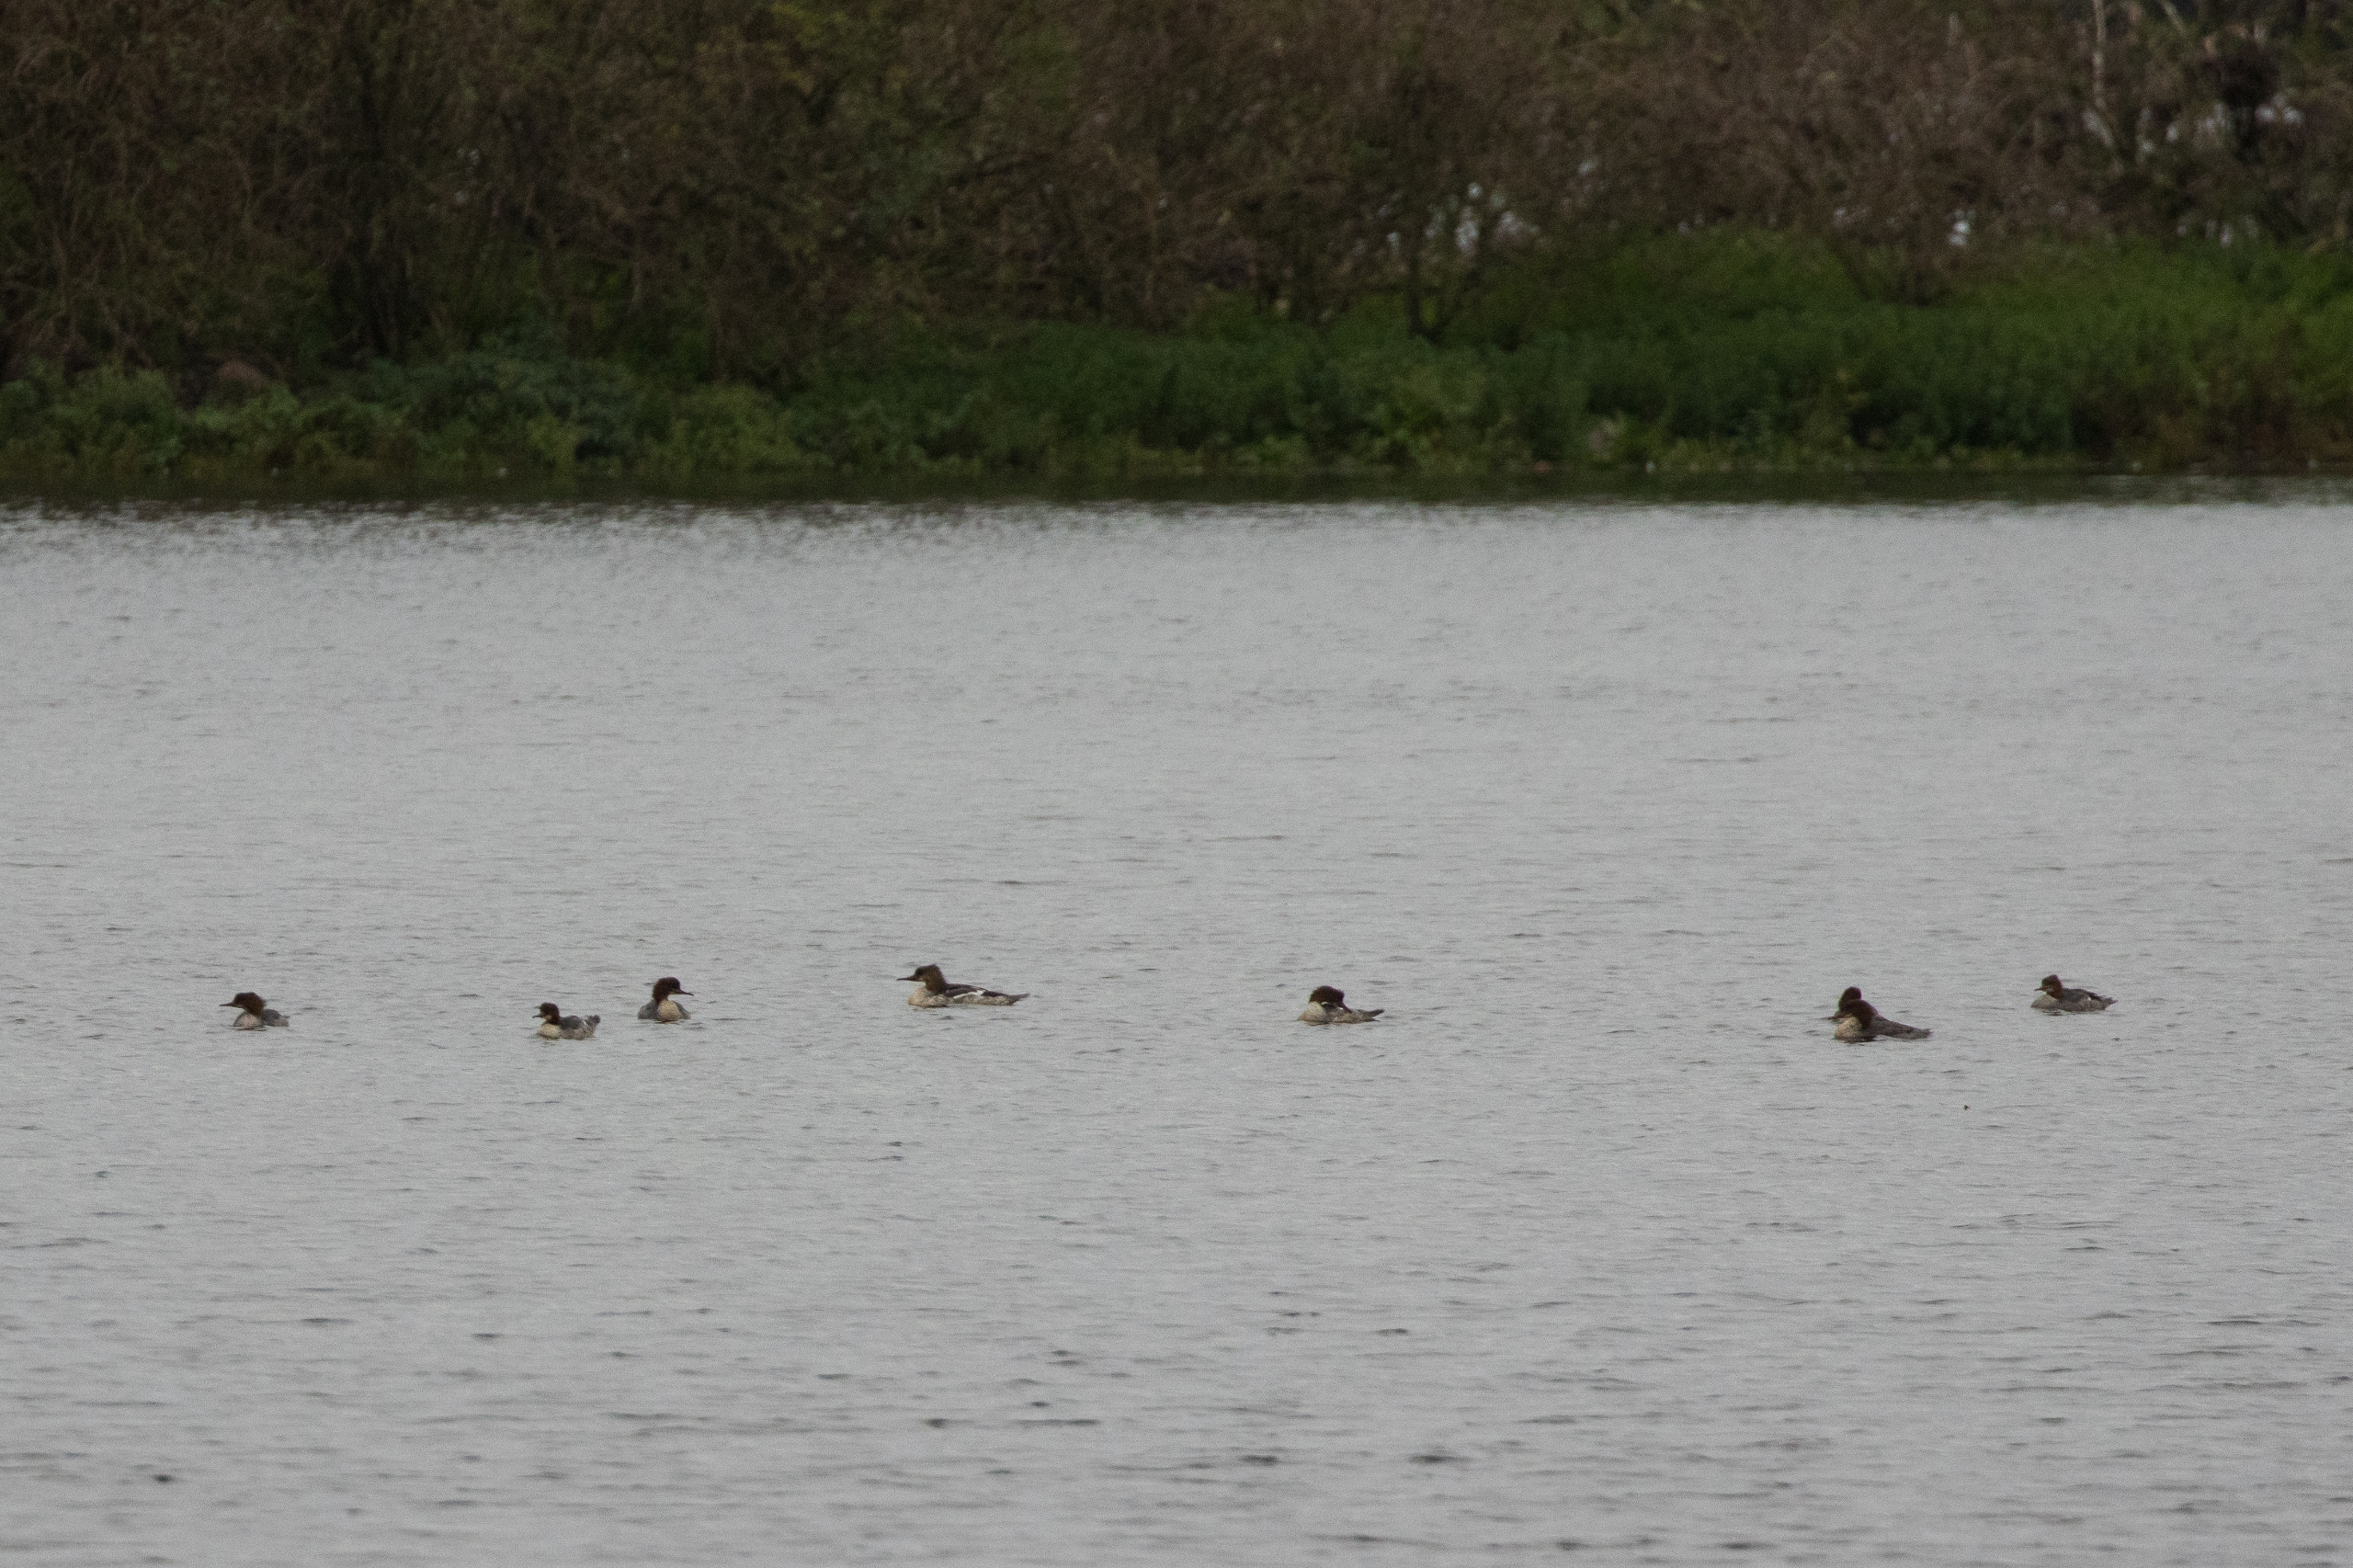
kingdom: Animalia
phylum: Chordata
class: Aves
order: Anseriformes
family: Anatidae
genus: Mergus
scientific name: Mergus merganser
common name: Stor skallesluger
